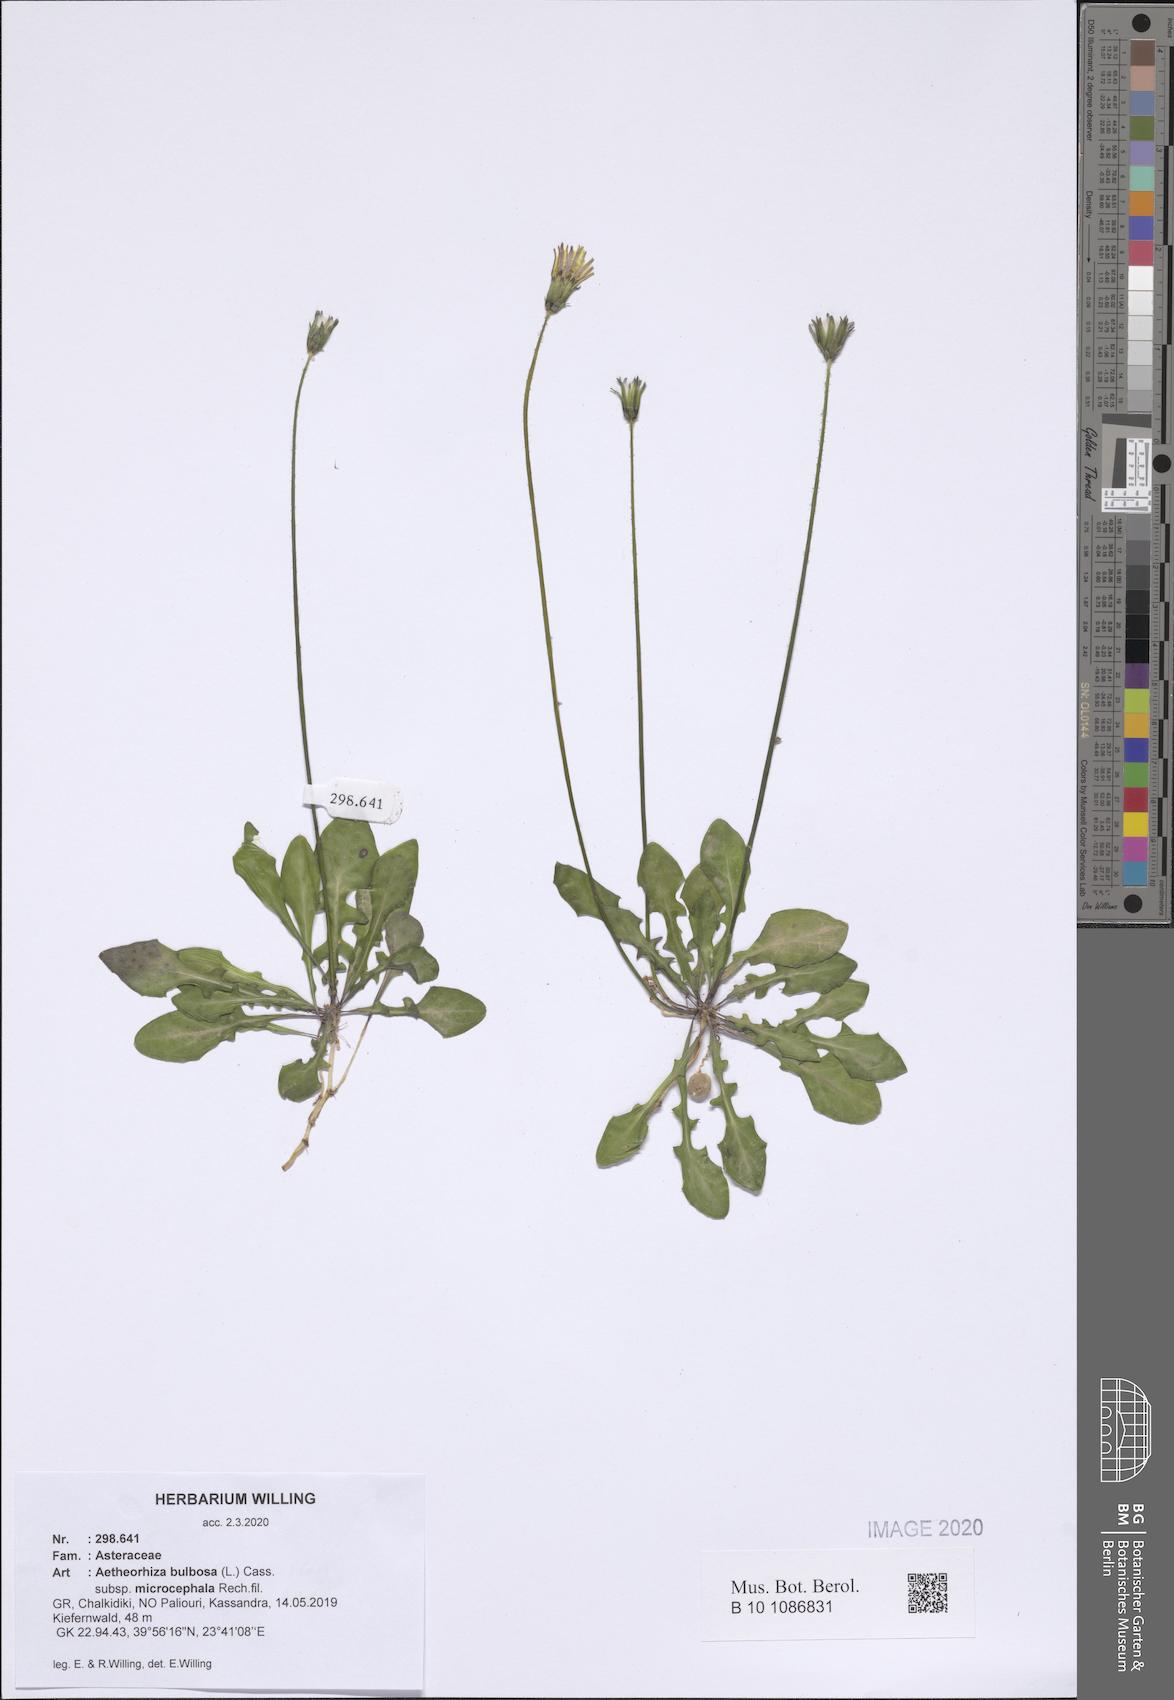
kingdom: Plantae
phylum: Tracheophyta
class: Magnoliopsida
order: Asterales
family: Asteraceae
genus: Aetheorhiza
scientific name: Aetheorhiza bulbosa
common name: Tuberous hawk's-beard
